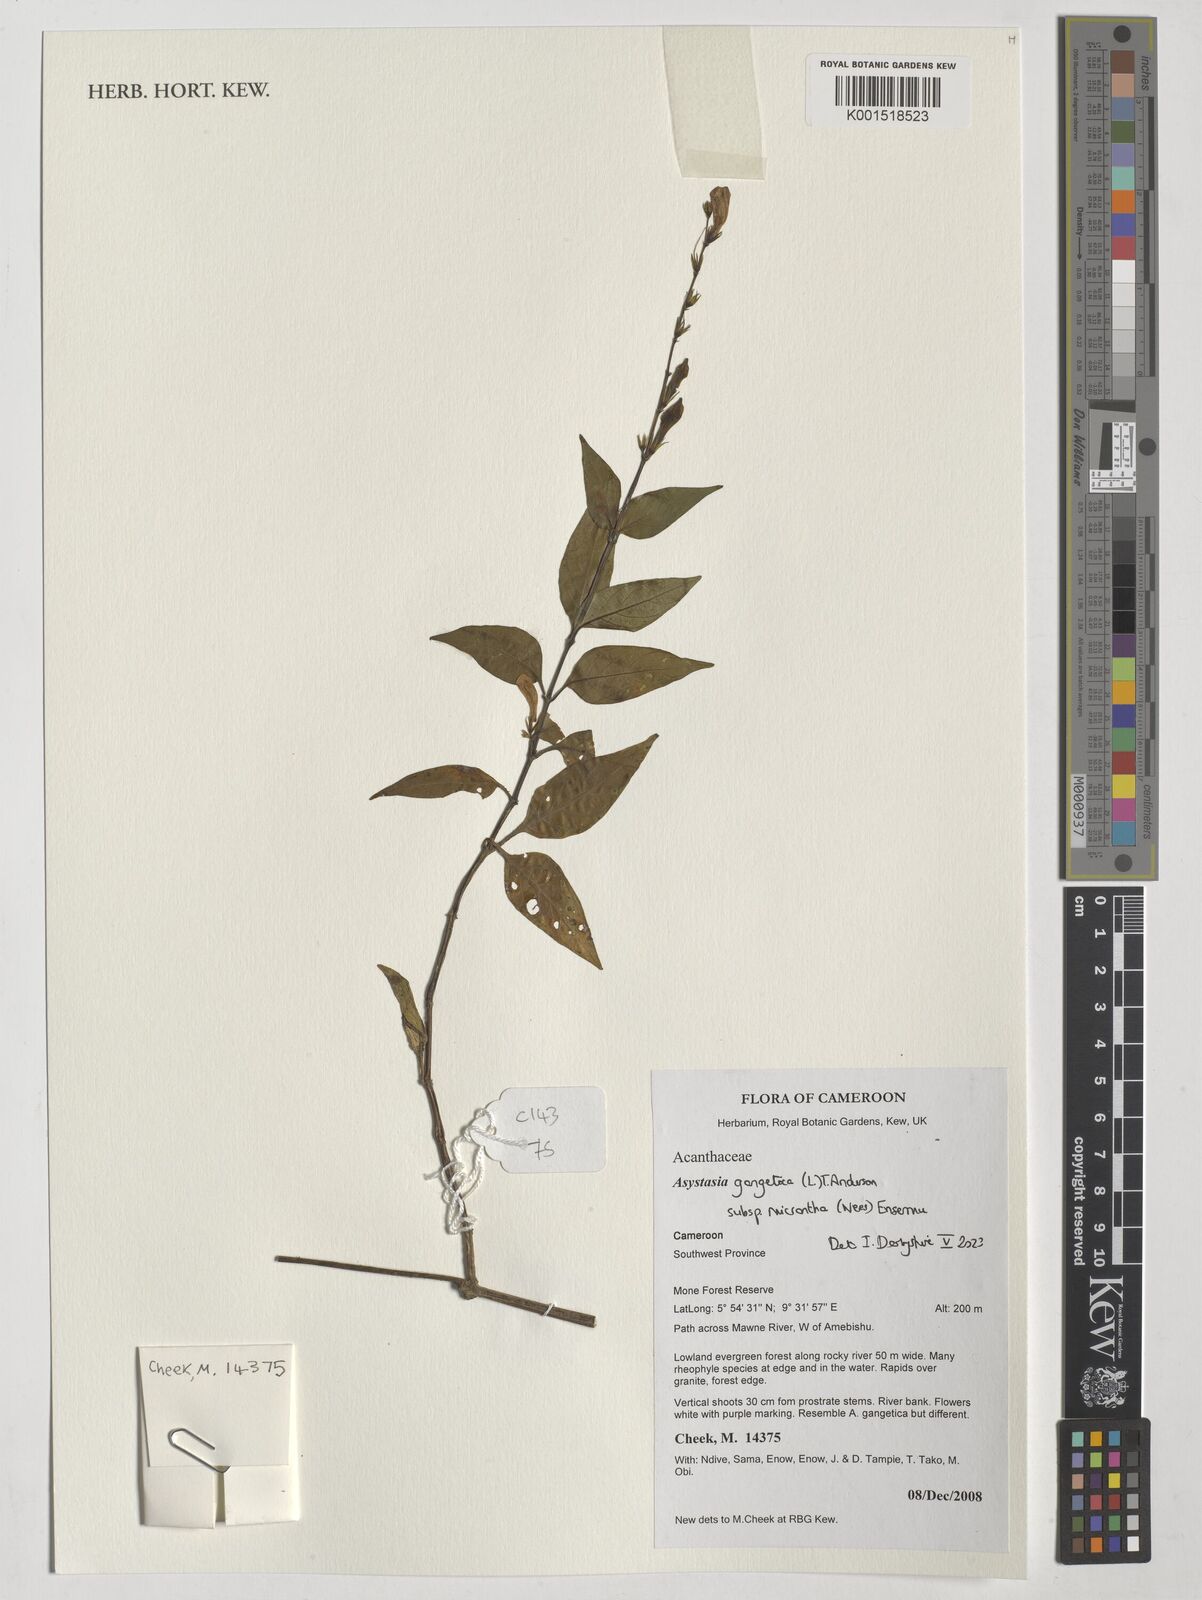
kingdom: Plantae
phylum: Tracheophyta
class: Magnoliopsida
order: Lamiales
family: Acanthaceae
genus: Asystasia
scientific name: Asystasia intrusa
